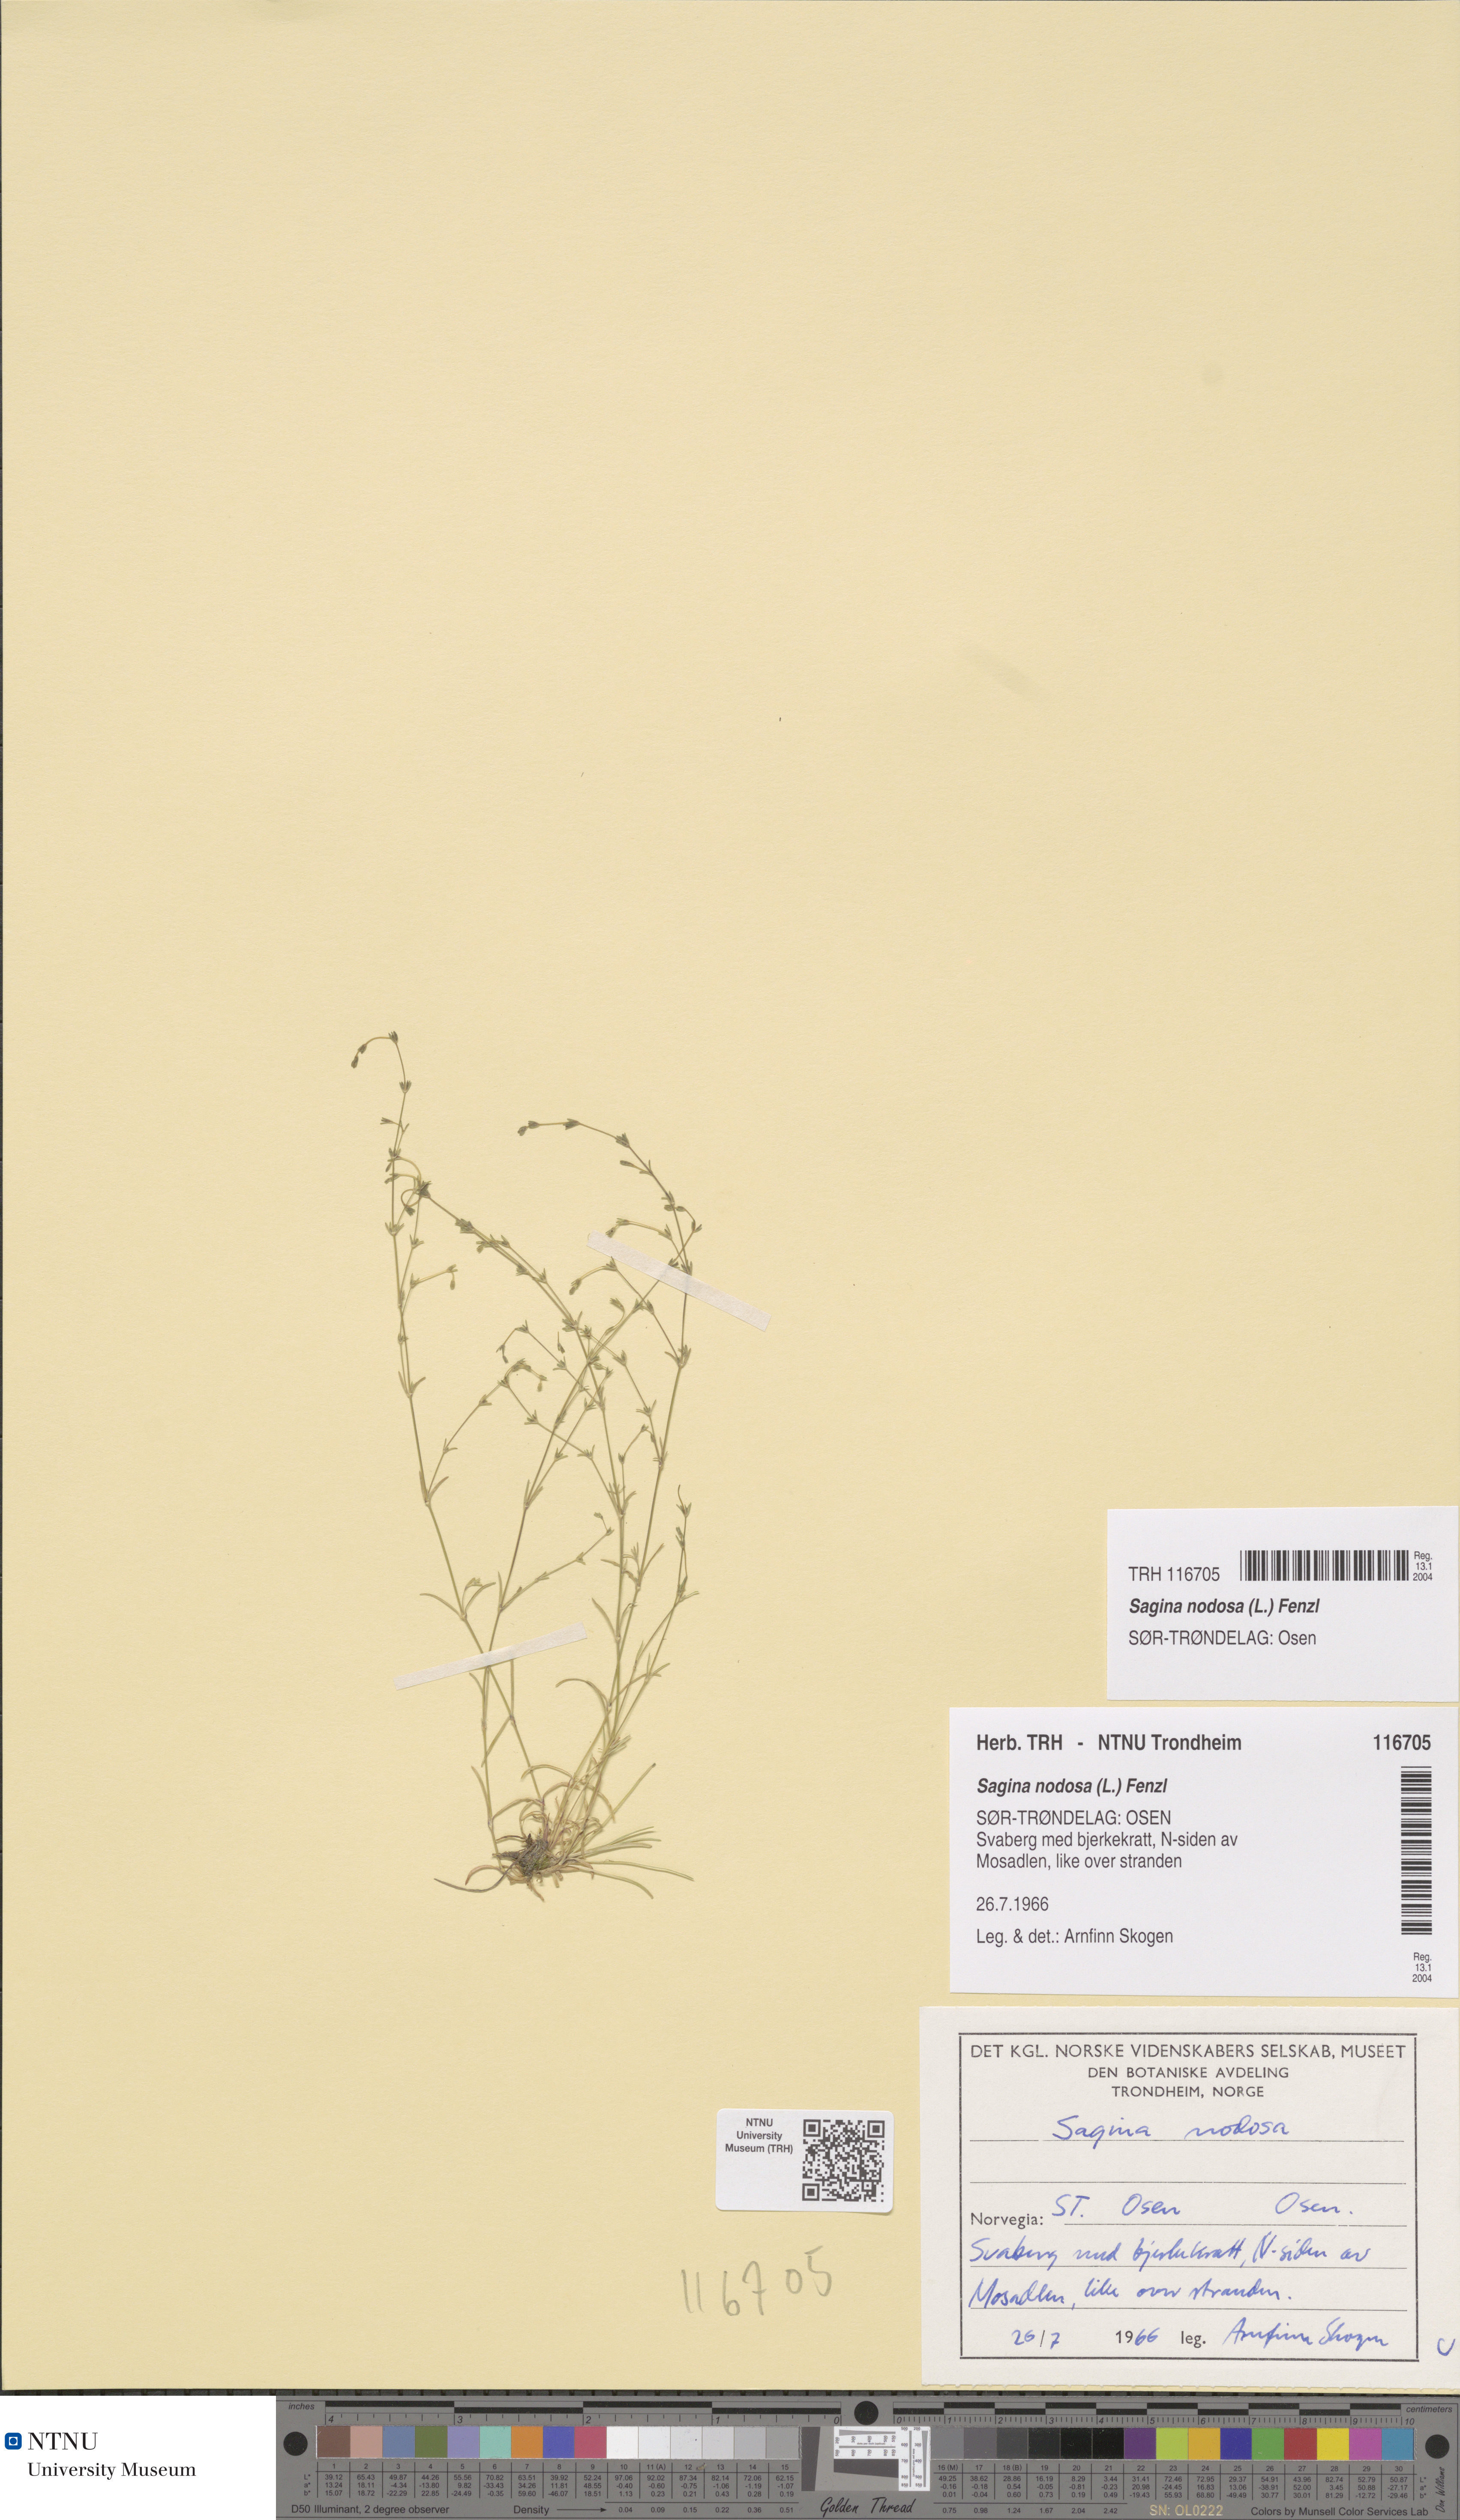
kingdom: Plantae
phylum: Tracheophyta
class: Magnoliopsida
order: Caryophyllales
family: Caryophyllaceae
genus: Sagina
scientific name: Sagina nodosa
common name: Knotted pearlwort
